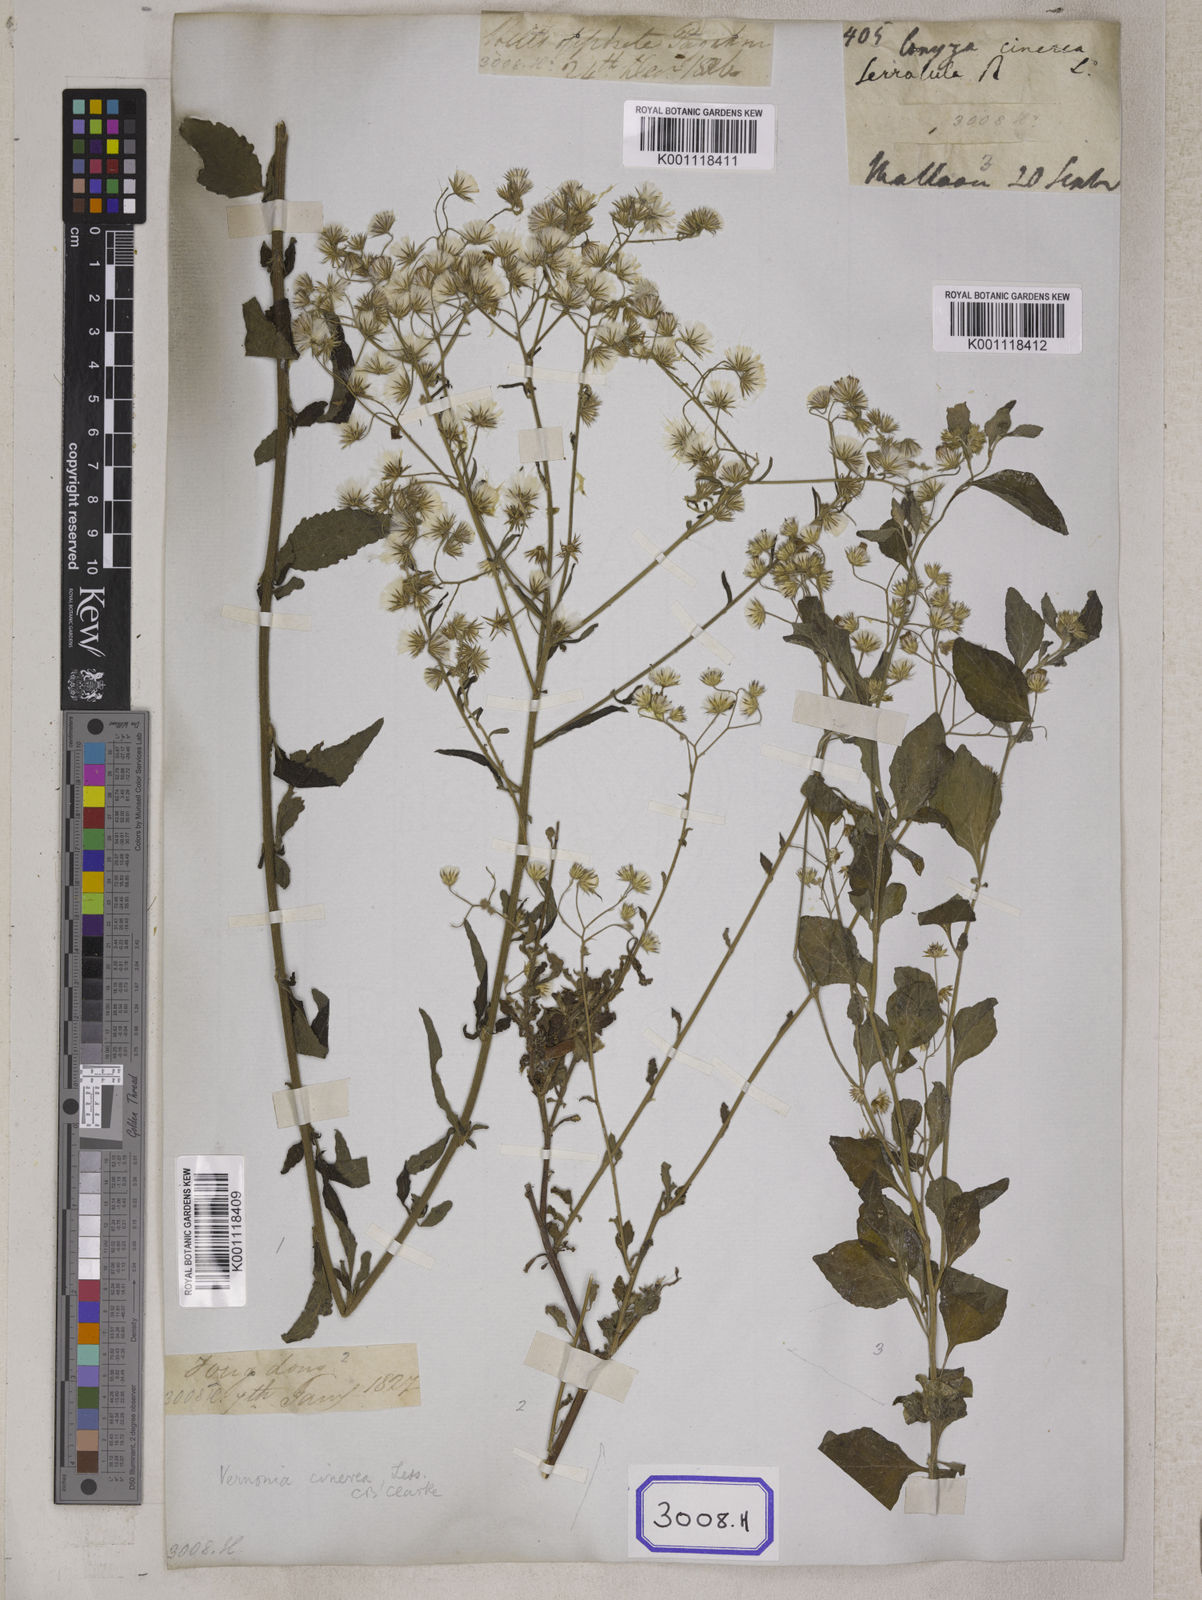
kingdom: Plantae
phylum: Tracheophyta
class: Magnoliopsida
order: Asterales
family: Asteraceae
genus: Cyanthillium
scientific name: Cyanthillium cinereum
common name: Little ironweed
